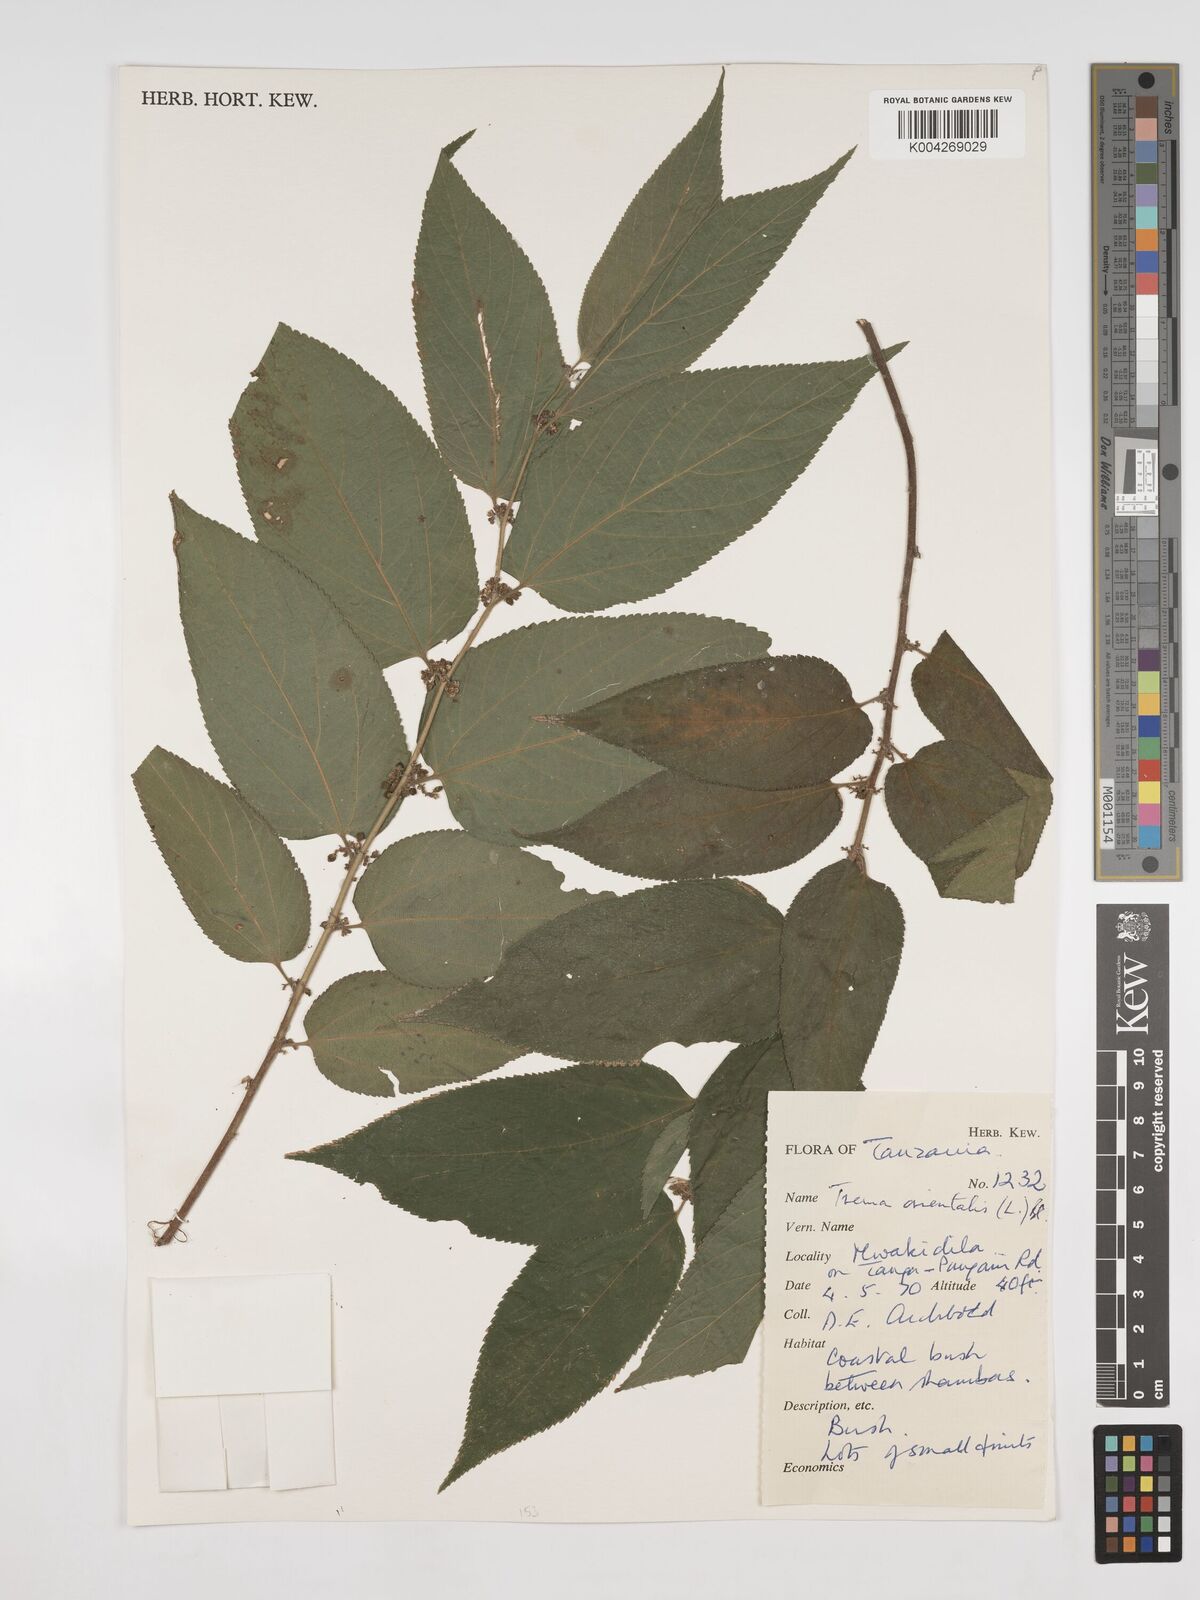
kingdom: Plantae
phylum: Tracheophyta
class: Magnoliopsida
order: Rosales
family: Cannabaceae
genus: Trema
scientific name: Trema orientale
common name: Indian charcoal tree
